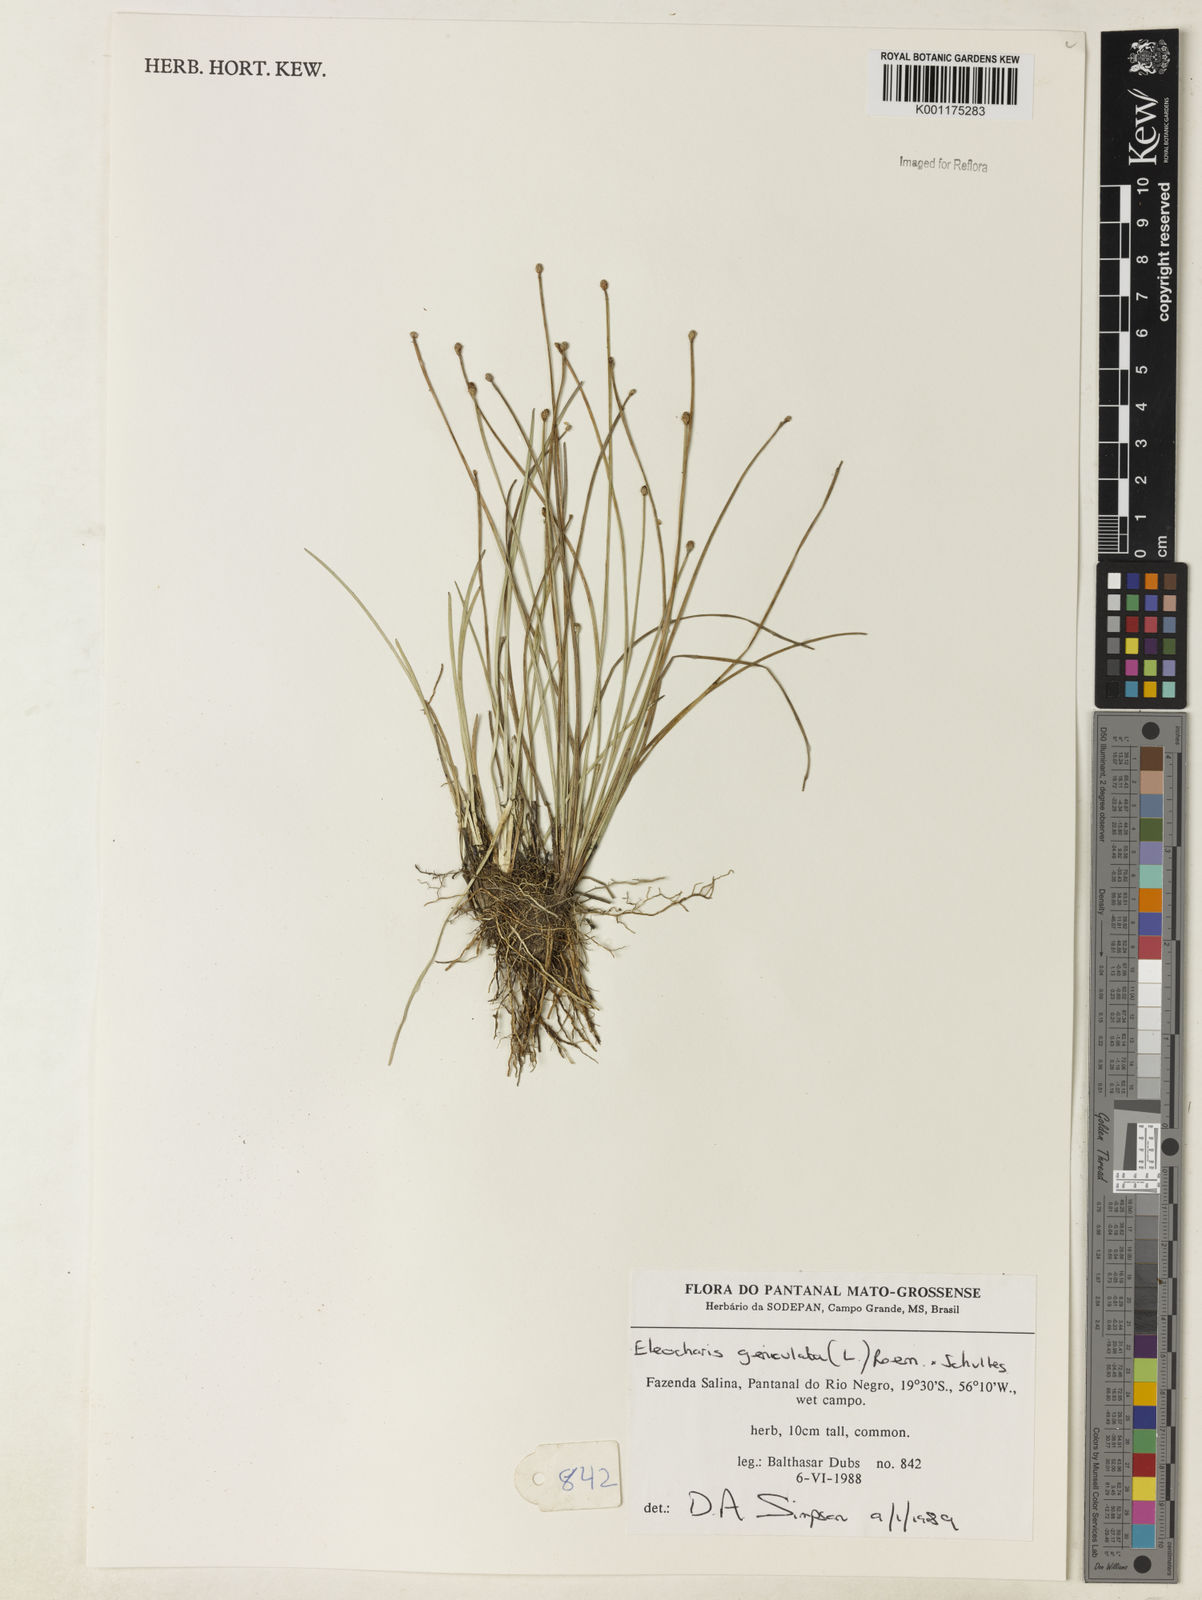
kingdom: Plantae
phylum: Tracheophyta
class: Liliopsida
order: Poales
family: Cyperaceae
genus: Eleocharis
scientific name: Eleocharis geniculata
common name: Canada spikesedge
